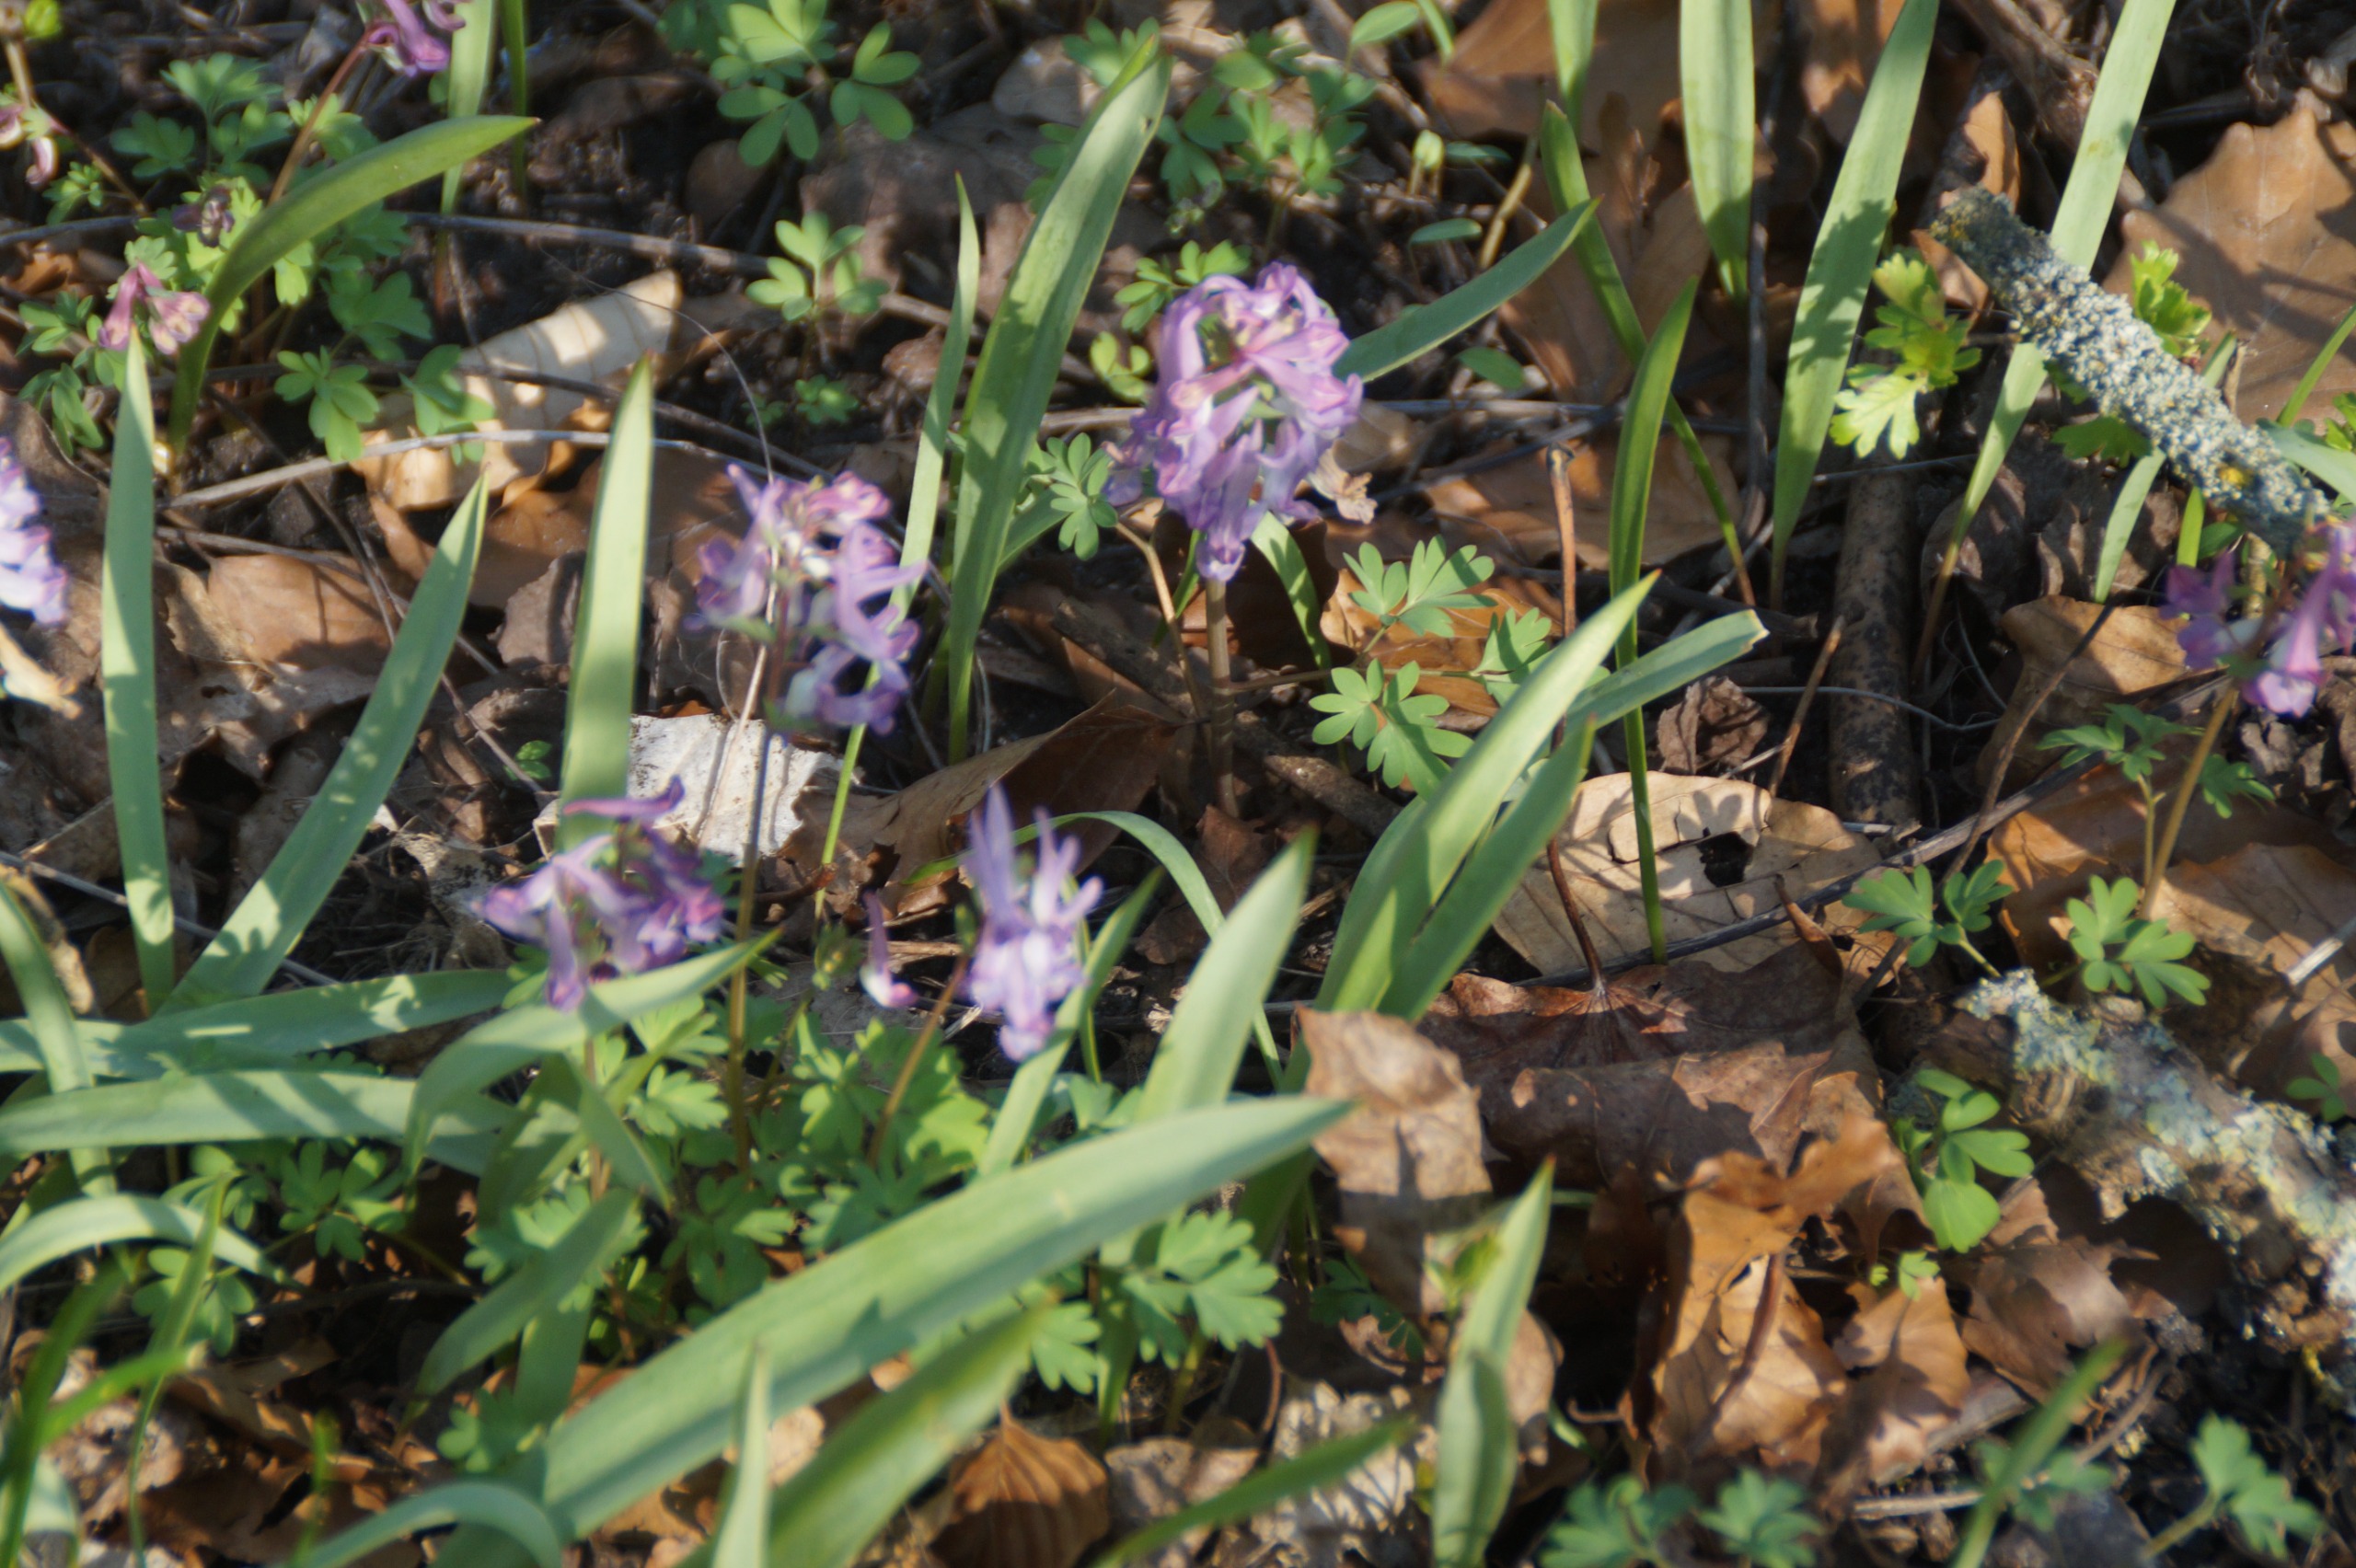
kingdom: Plantae
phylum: Tracheophyta
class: Magnoliopsida
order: Ranunculales
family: Papaveraceae
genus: Corydalis
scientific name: Corydalis solida
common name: Langstilket lærkespore
